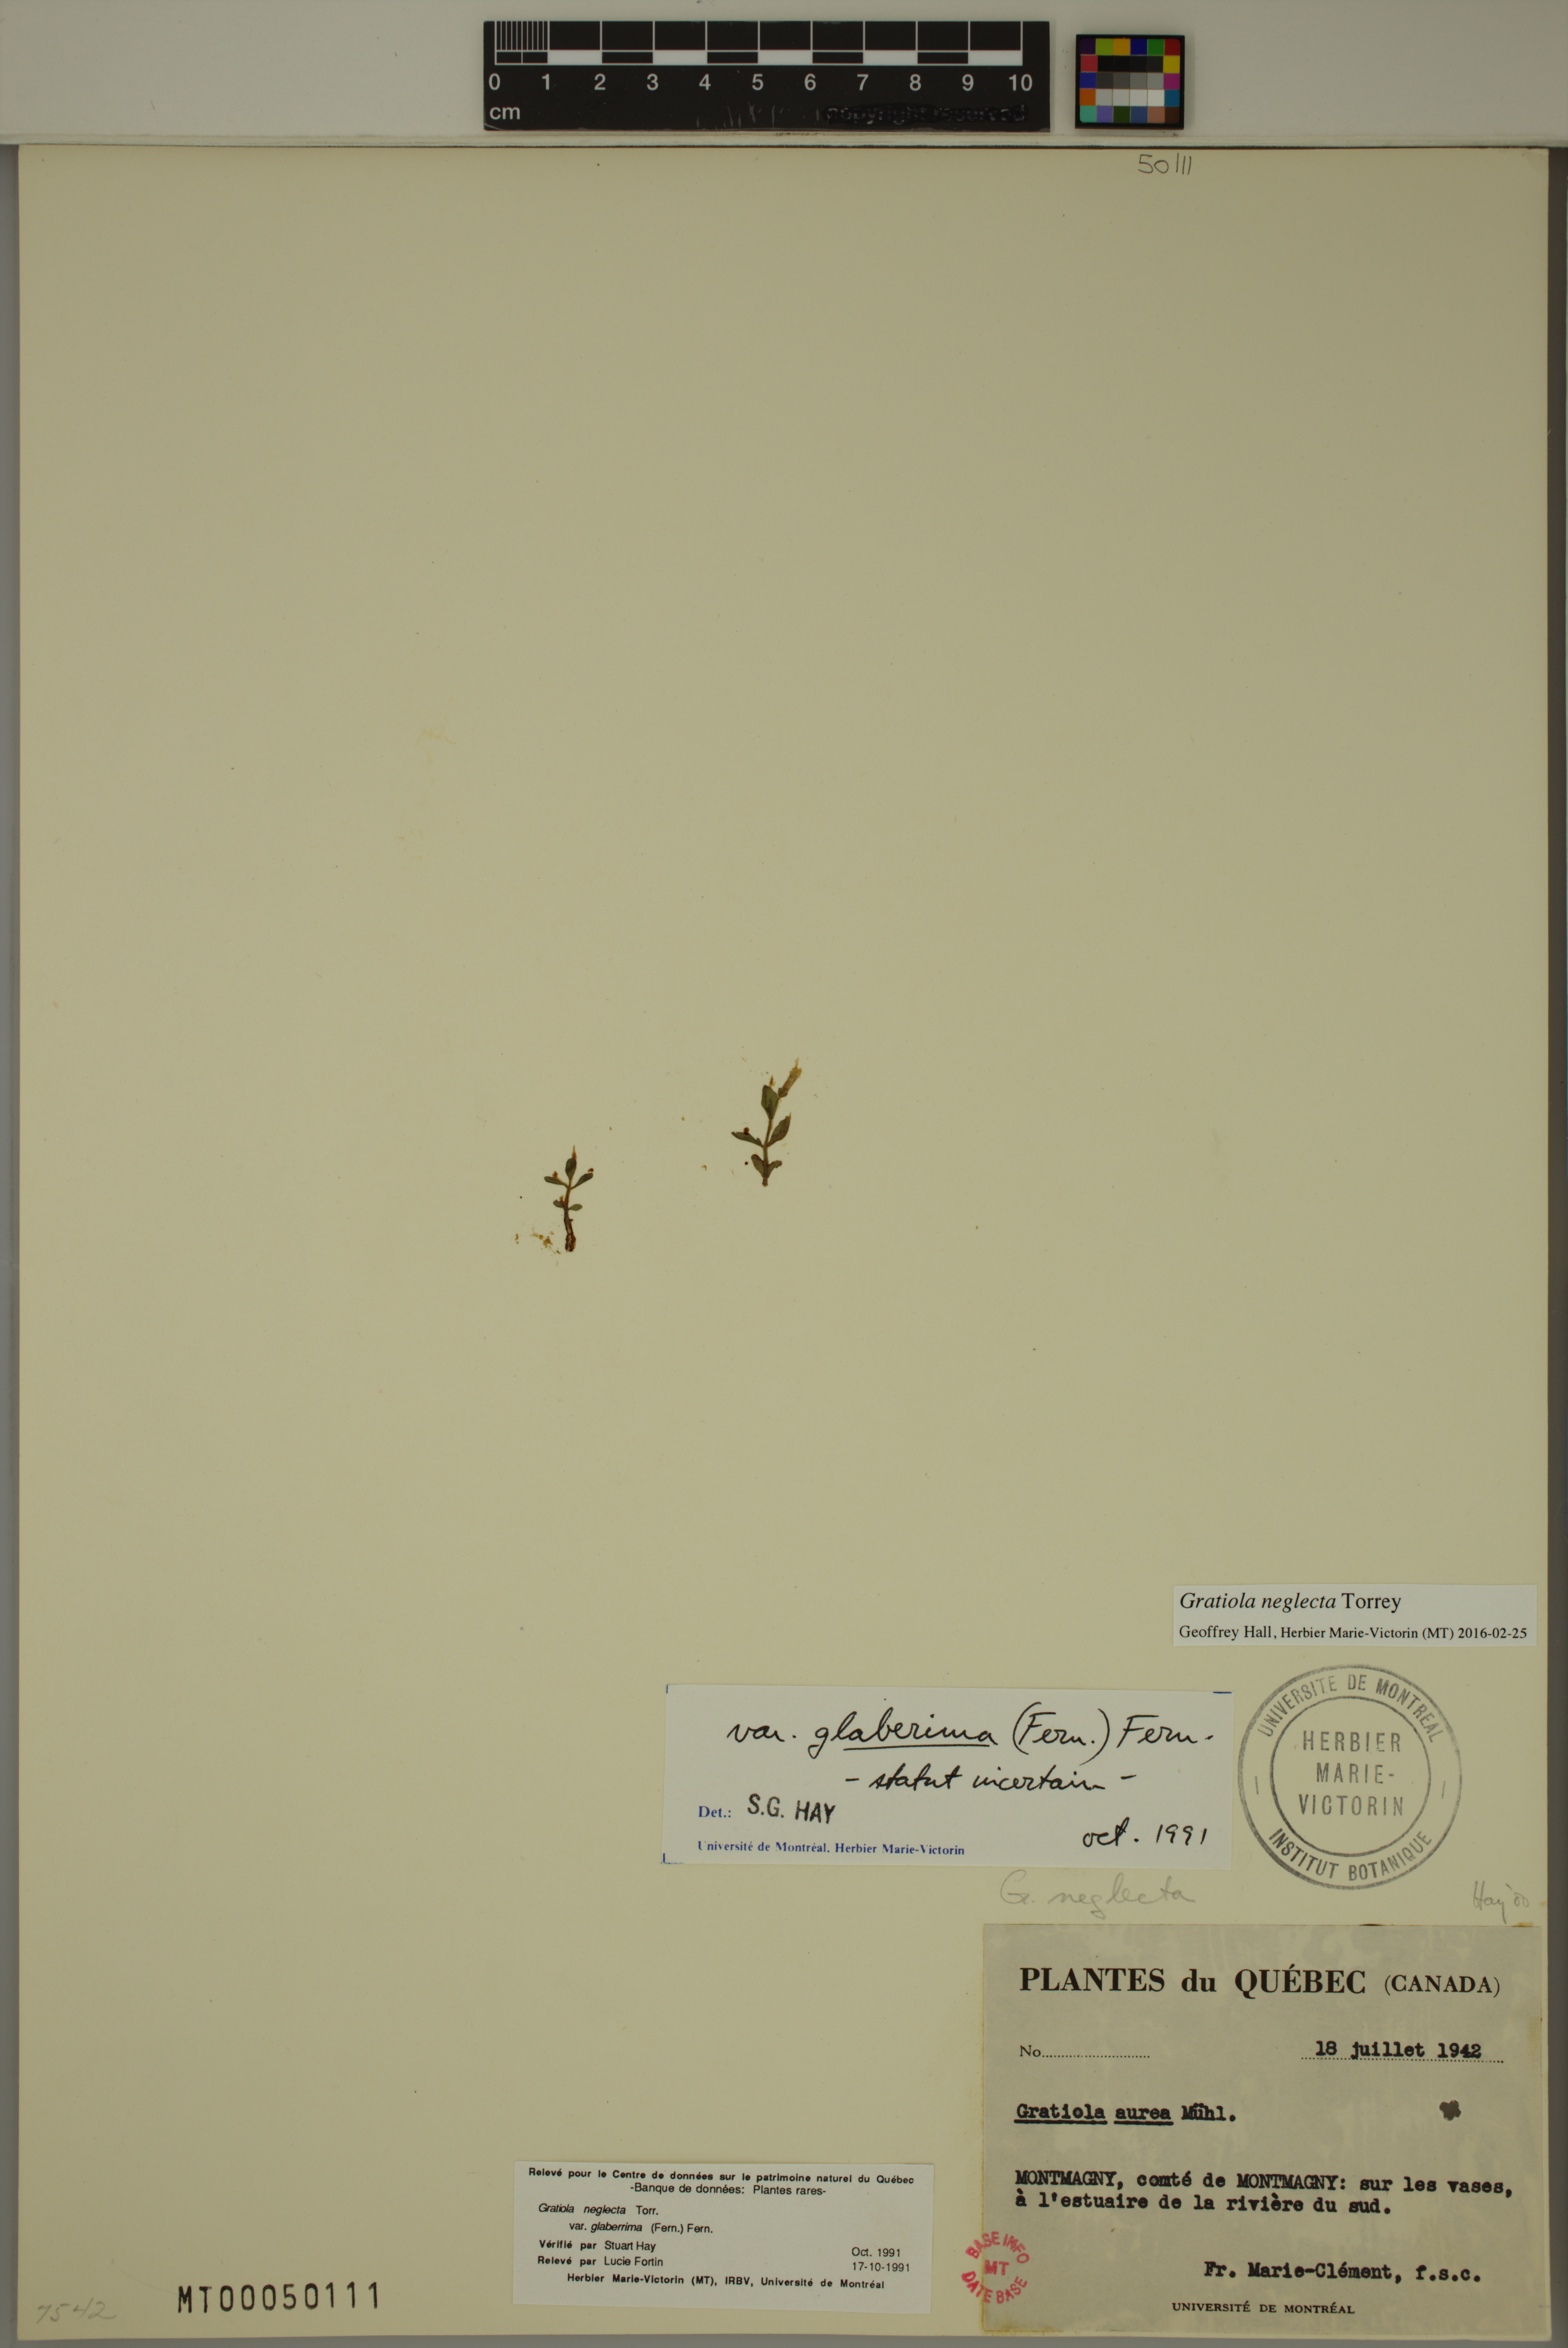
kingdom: Plantae
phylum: Tracheophyta
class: Magnoliopsida
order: Lamiales
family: Plantaginaceae
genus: Gratiola
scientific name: Gratiola neglecta
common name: American hedge-hyssop
